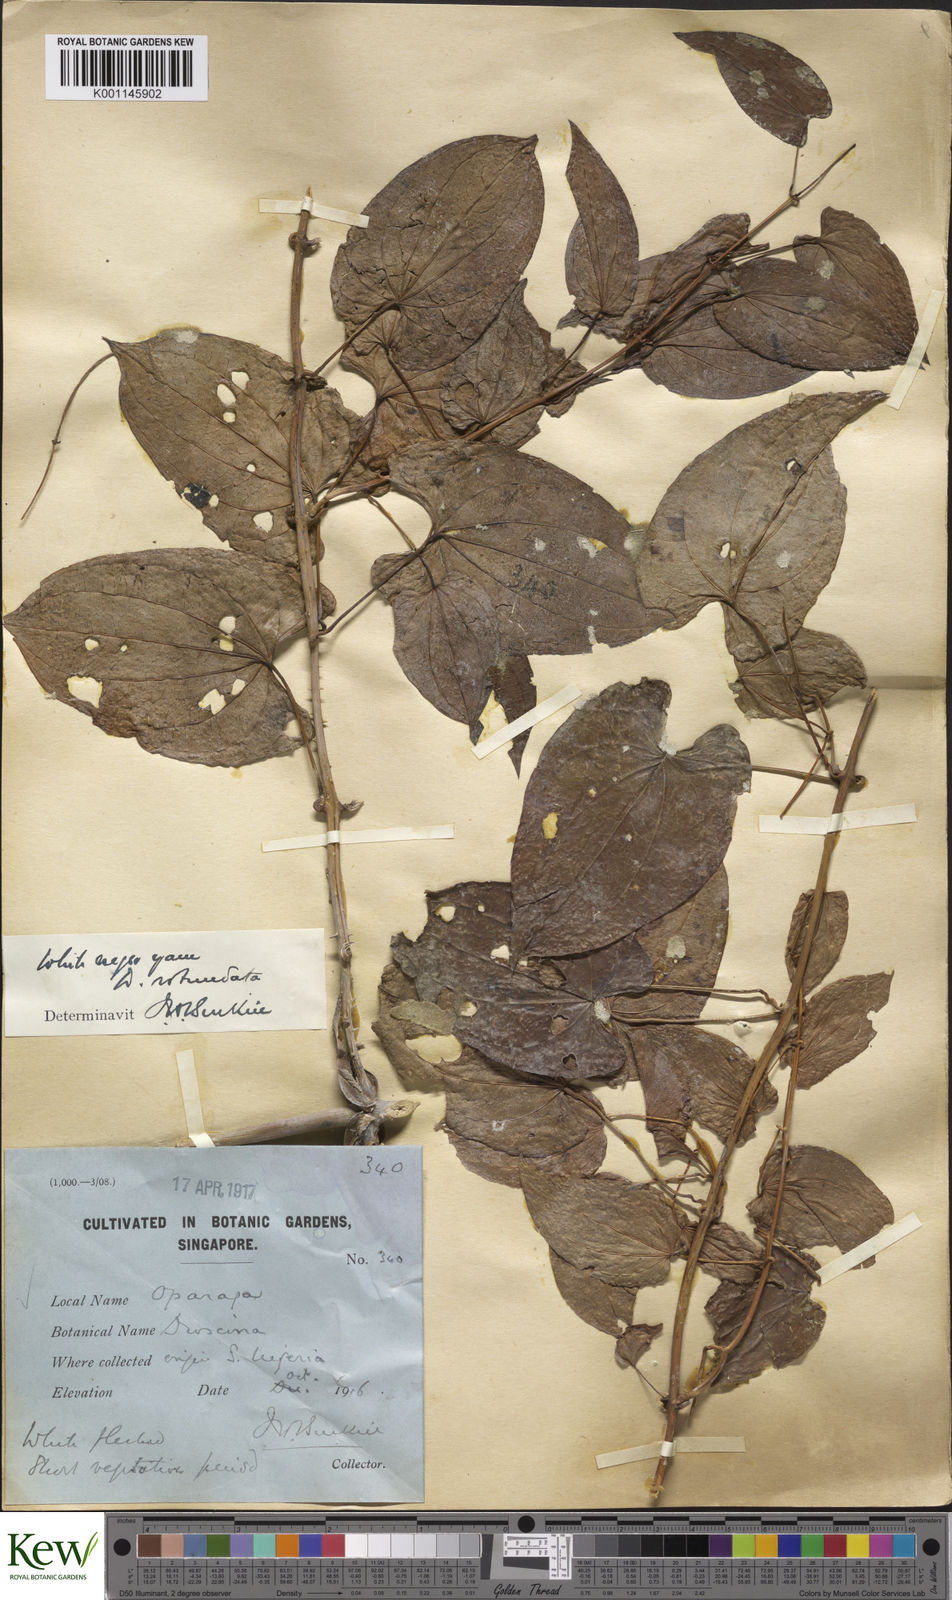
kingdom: Plantae
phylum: Tracheophyta
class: Liliopsida
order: Dioscoreales
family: Dioscoreaceae
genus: Dioscorea
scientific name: Dioscorea cayenensis
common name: Attoto yam
